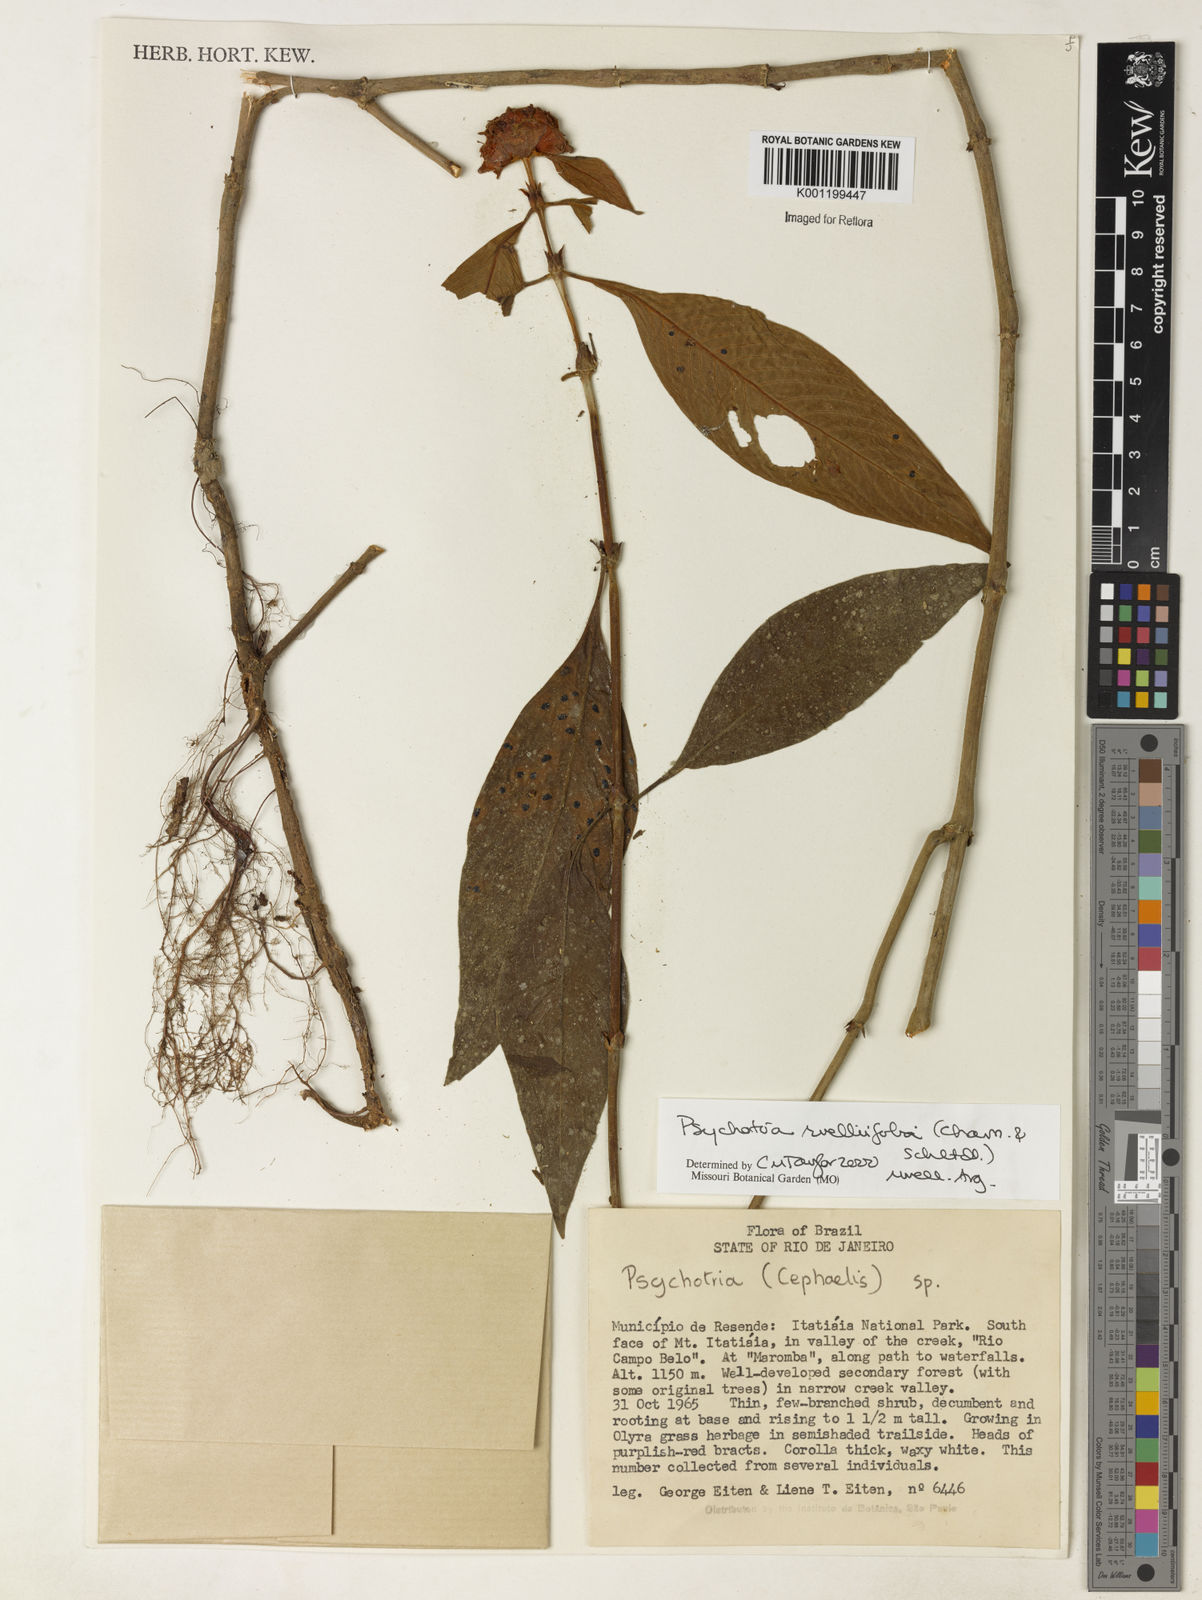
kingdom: Plantae
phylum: Tracheophyta
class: Magnoliopsida
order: Gentianales
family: Rubiaceae
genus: Psychotria
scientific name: Psychotria
